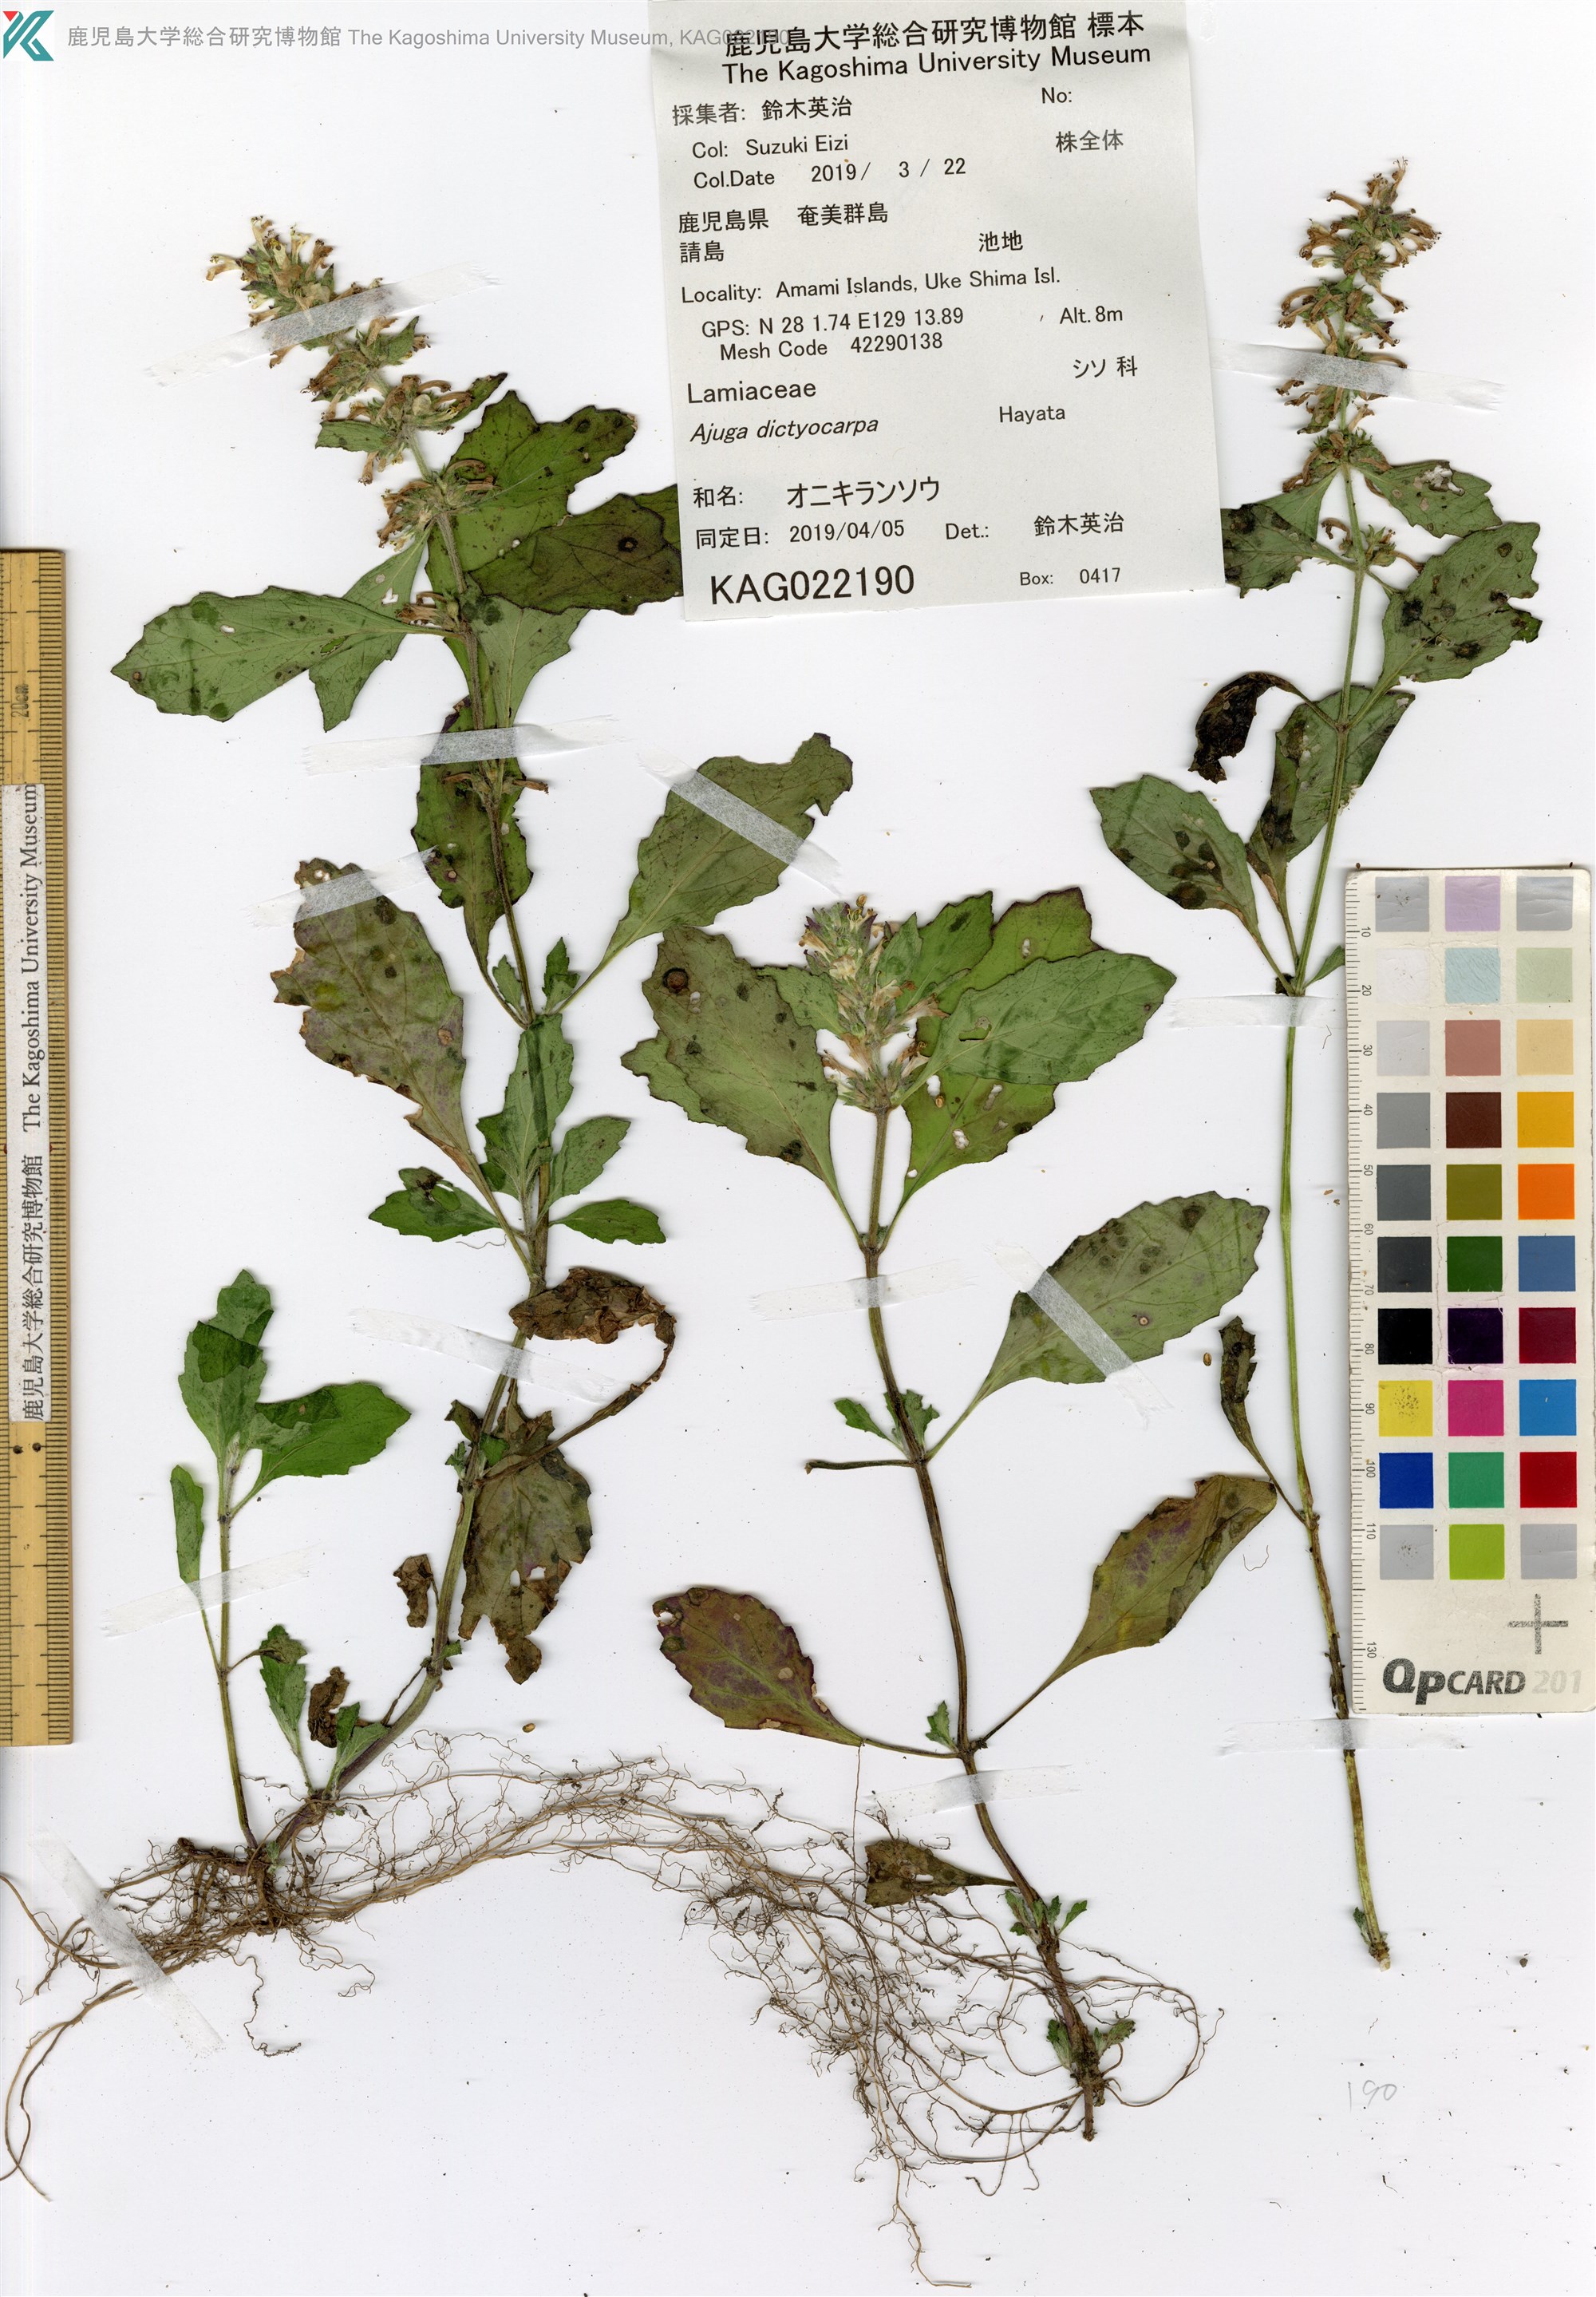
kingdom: Plantae
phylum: Tracheophyta
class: Magnoliopsida
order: Lamiales
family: Lamiaceae
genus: Ajuga
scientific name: Ajuga dictyocarpa
